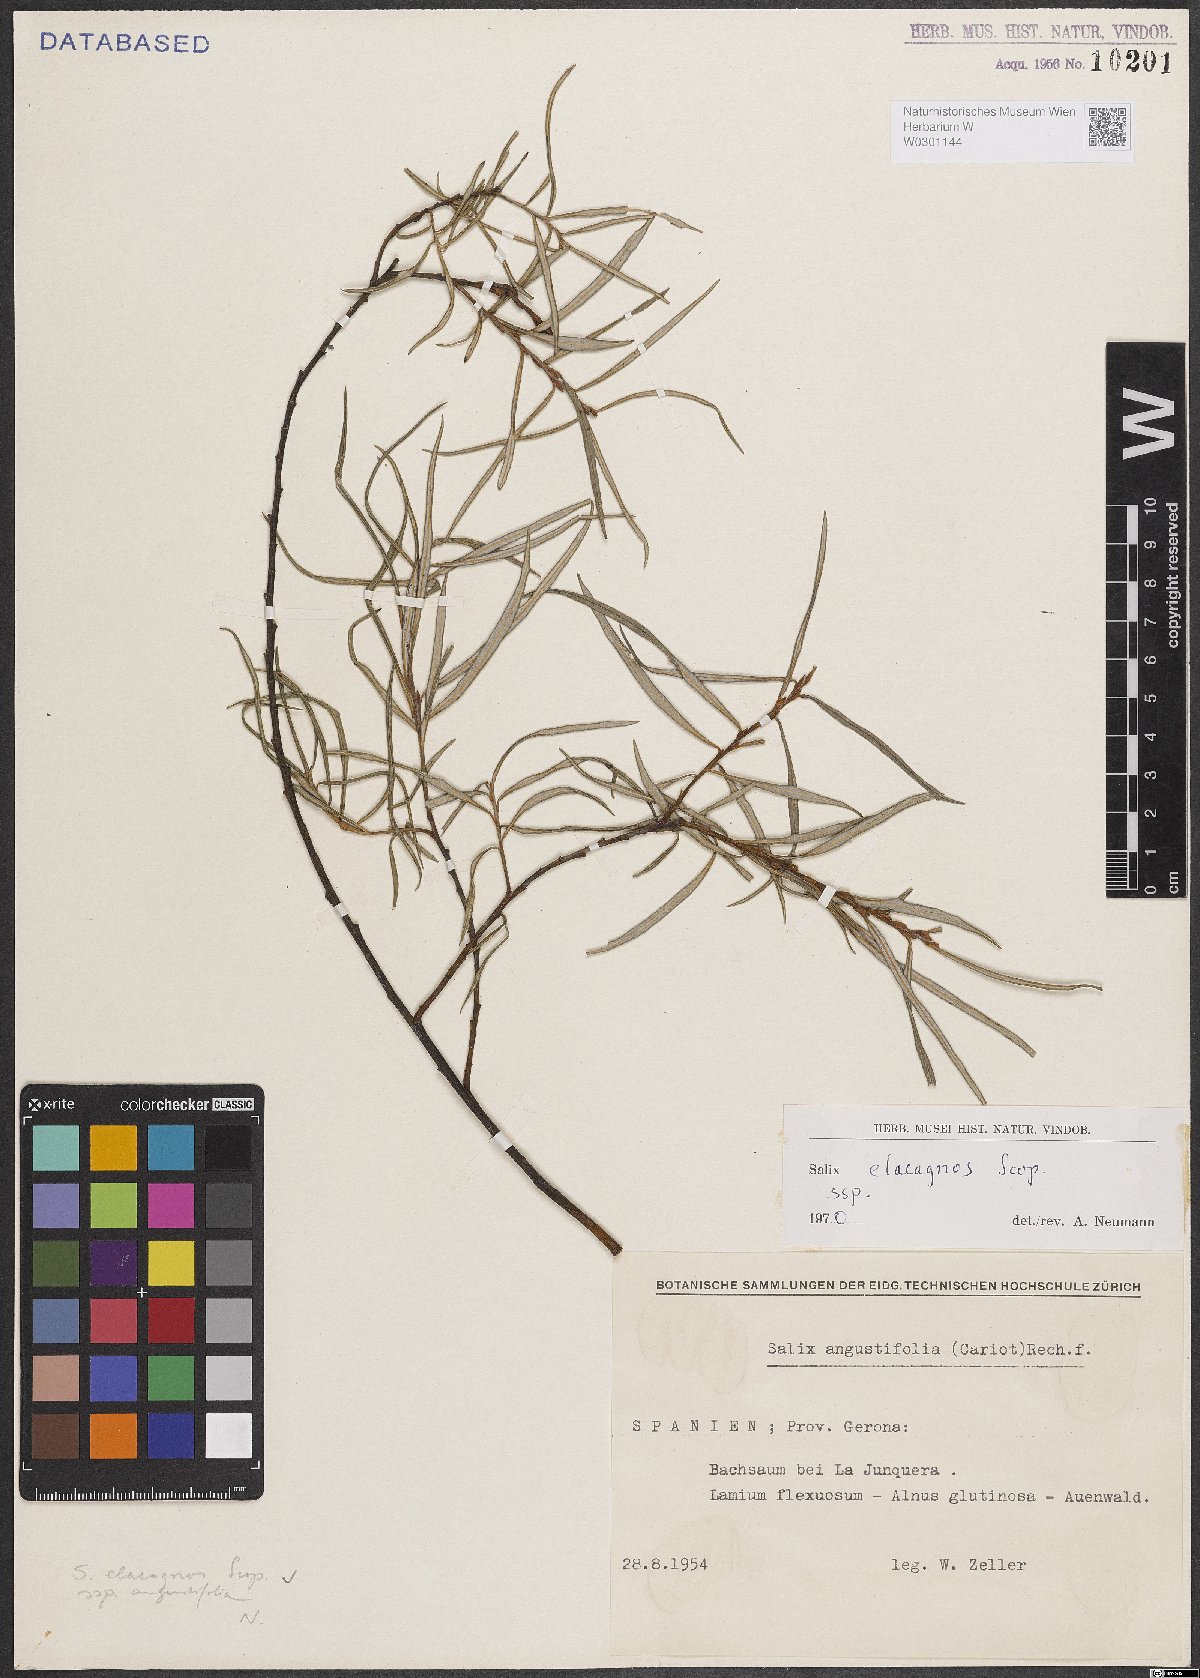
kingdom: Plantae
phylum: Tracheophyta
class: Magnoliopsida
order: Malpighiales
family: Salicaceae
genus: Salix
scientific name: Salix eleagnos
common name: Elaeagnus willow
